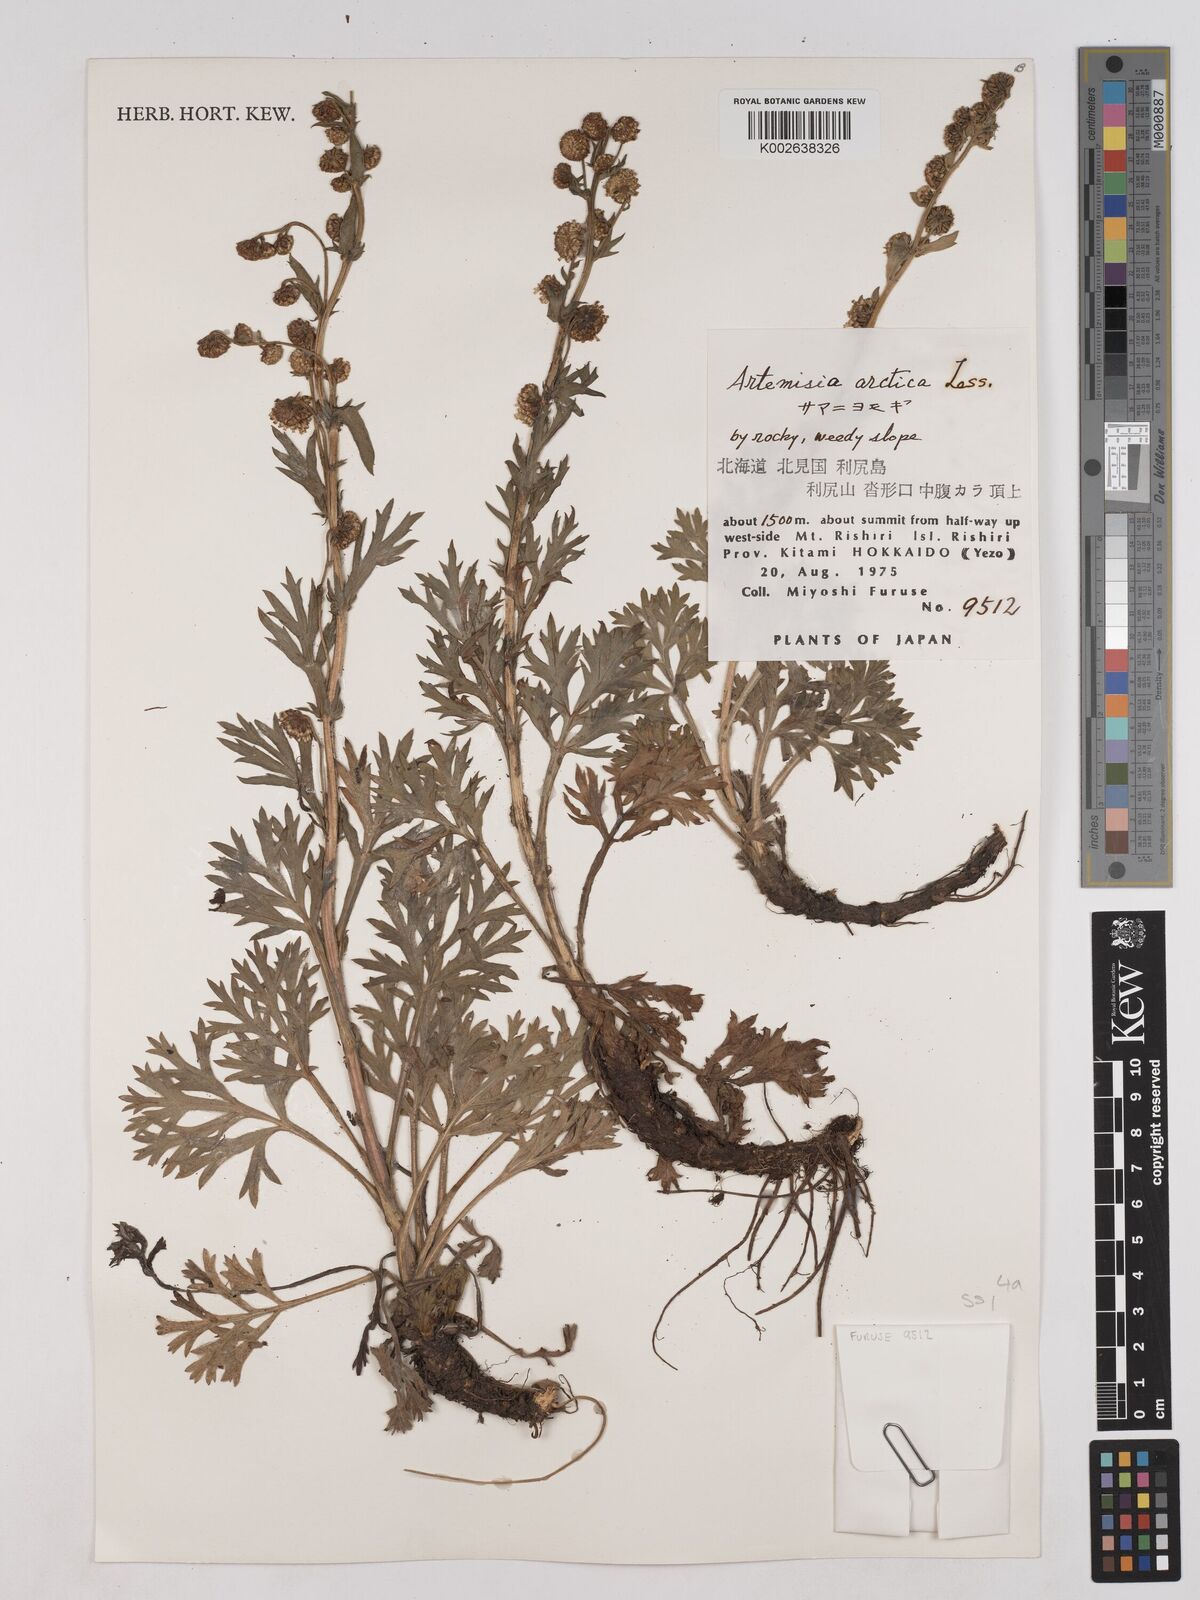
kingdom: Plantae
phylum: Tracheophyta
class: Magnoliopsida
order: Asterales
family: Asteraceae
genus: Artemisia
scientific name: Artemisia norvegica
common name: Norwegian mugwort
